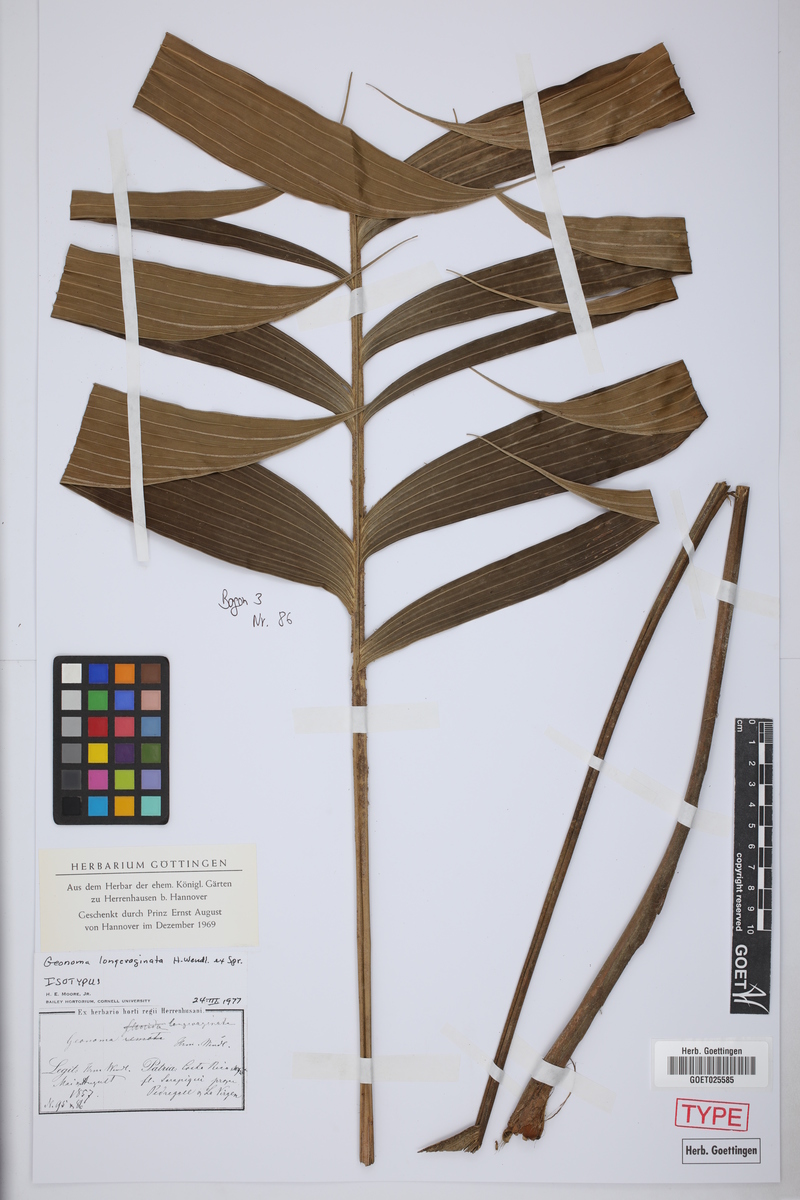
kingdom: Plantae
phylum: Tracheophyta
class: Liliopsida
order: Arecales
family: Arecaceae
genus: Geonoma
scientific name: Geonoma longivaginata
